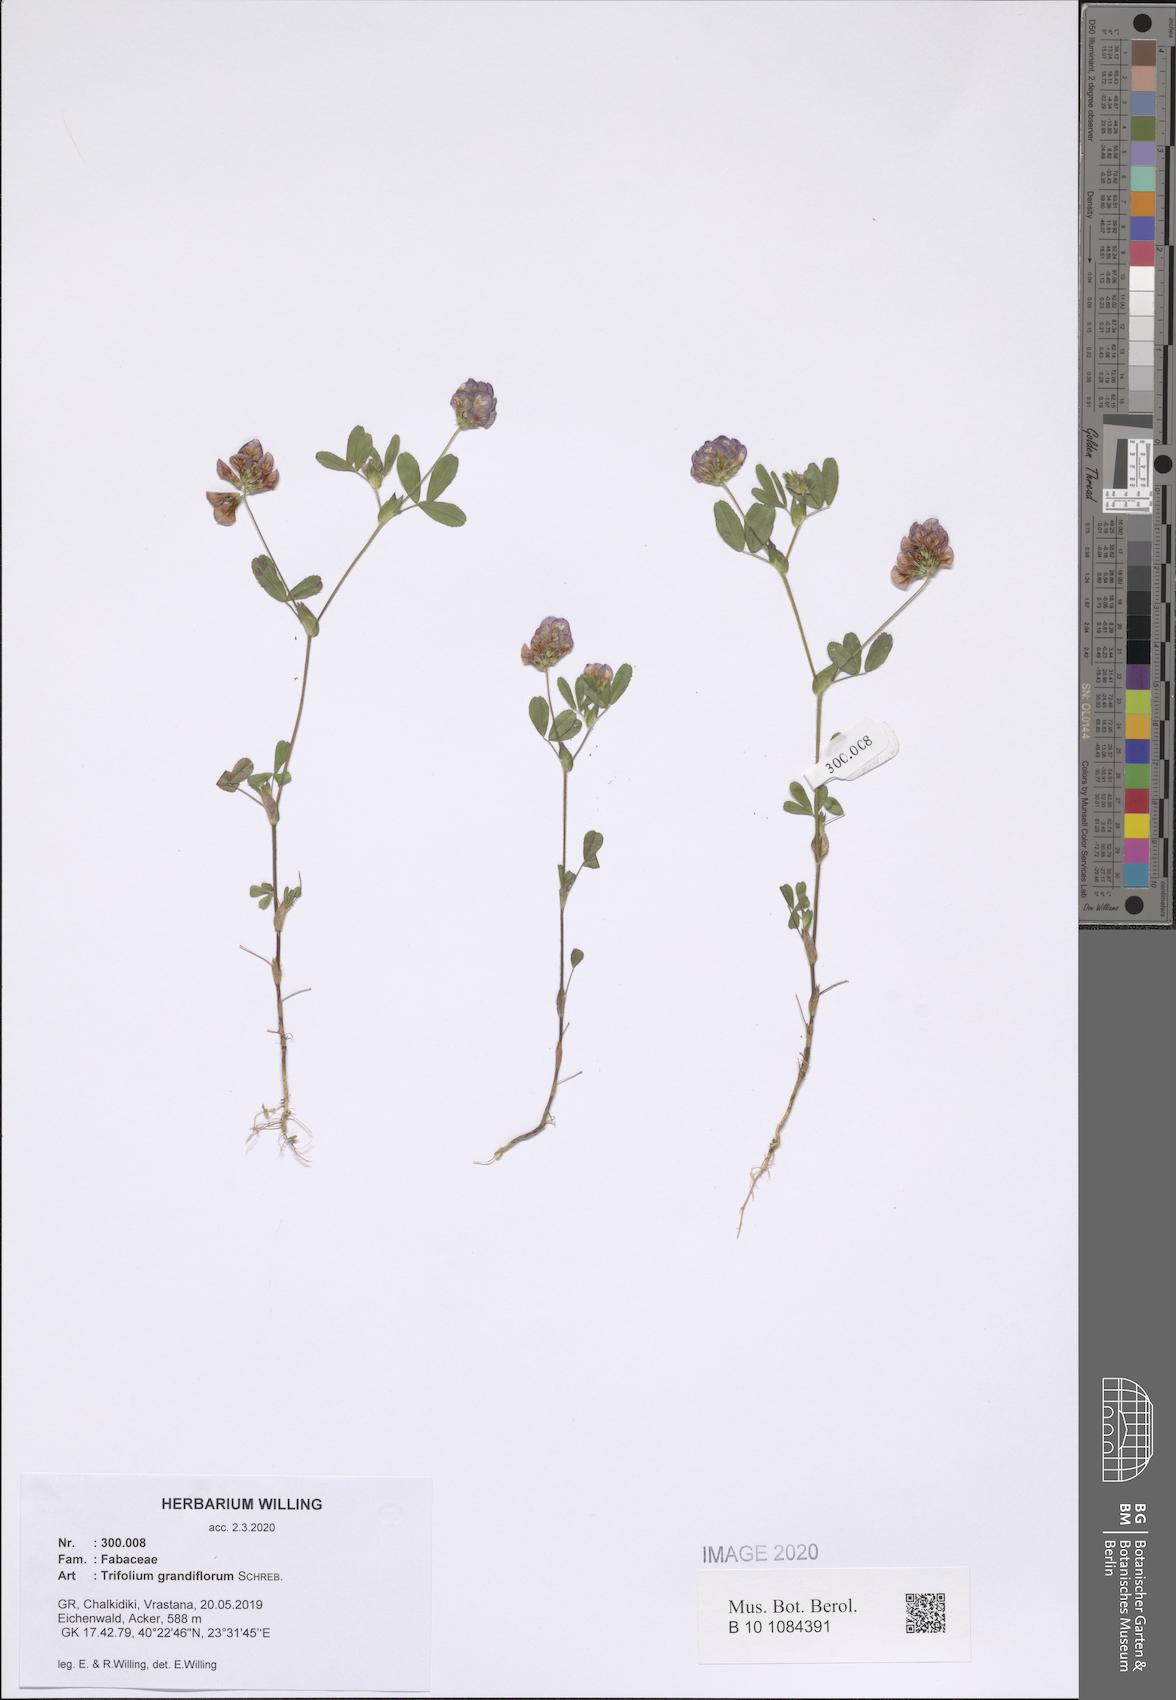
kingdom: Plantae
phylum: Tracheophyta
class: Magnoliopsida
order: Fabales
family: Fabaceae
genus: Trifolium
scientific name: Trifolium grandiflorum
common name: Large-flower hop clover
